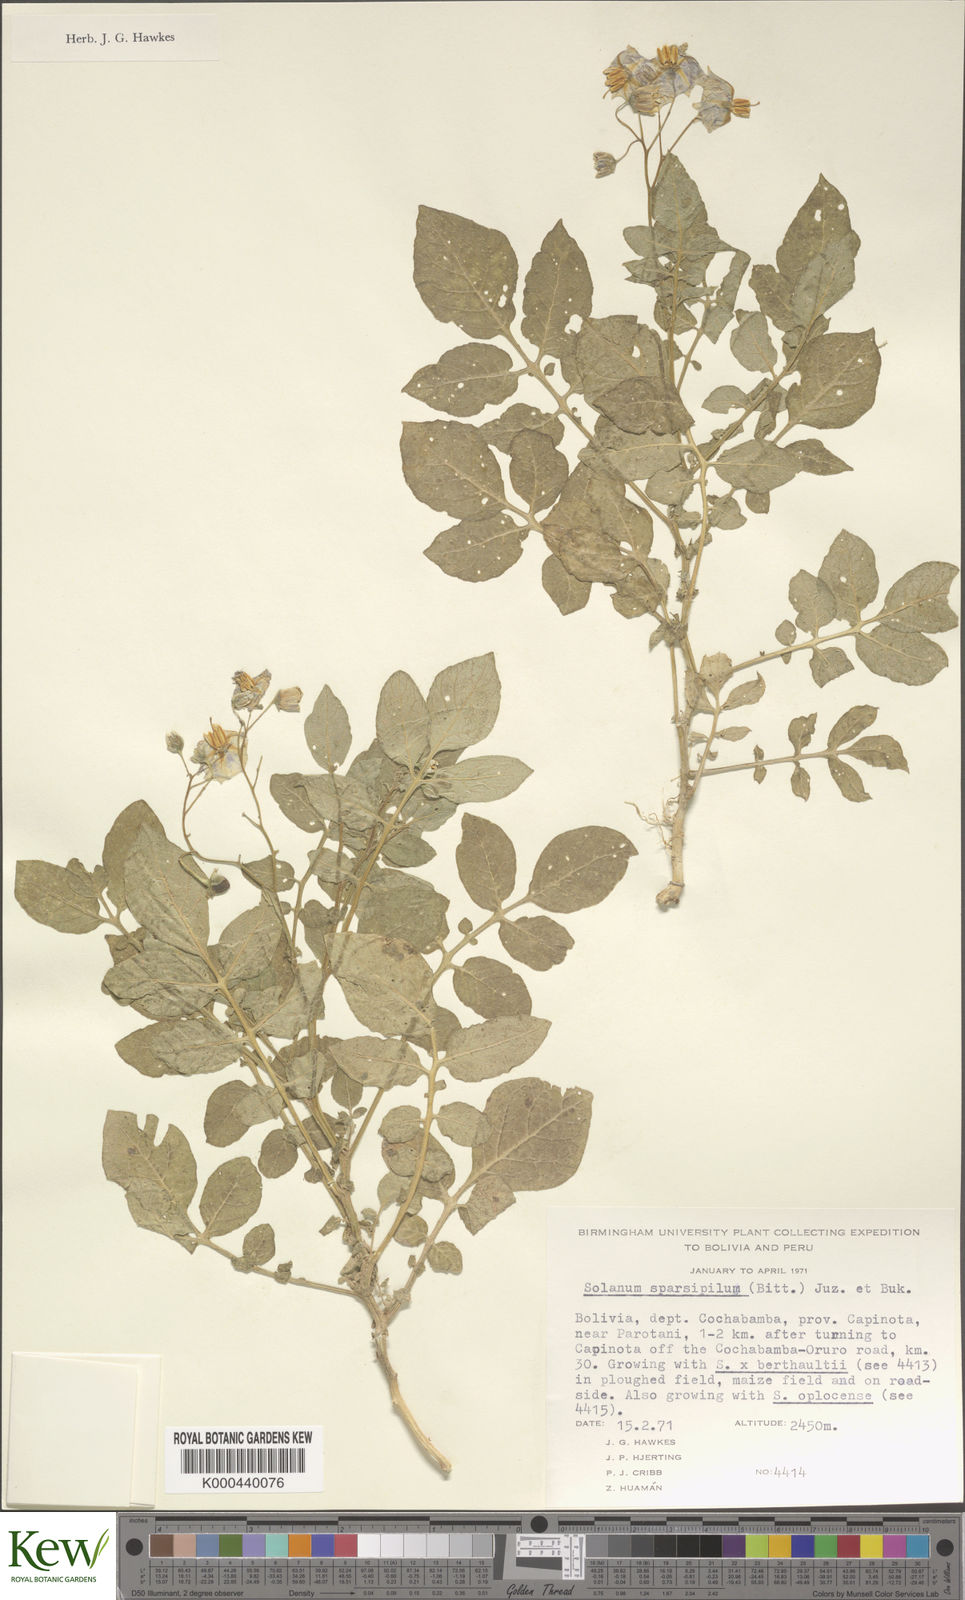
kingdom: Plantae
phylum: Tracheophyta
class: Magnoliopsida
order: Solanales
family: Solanaceae
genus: Solanum
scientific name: Solanum brevicaule
